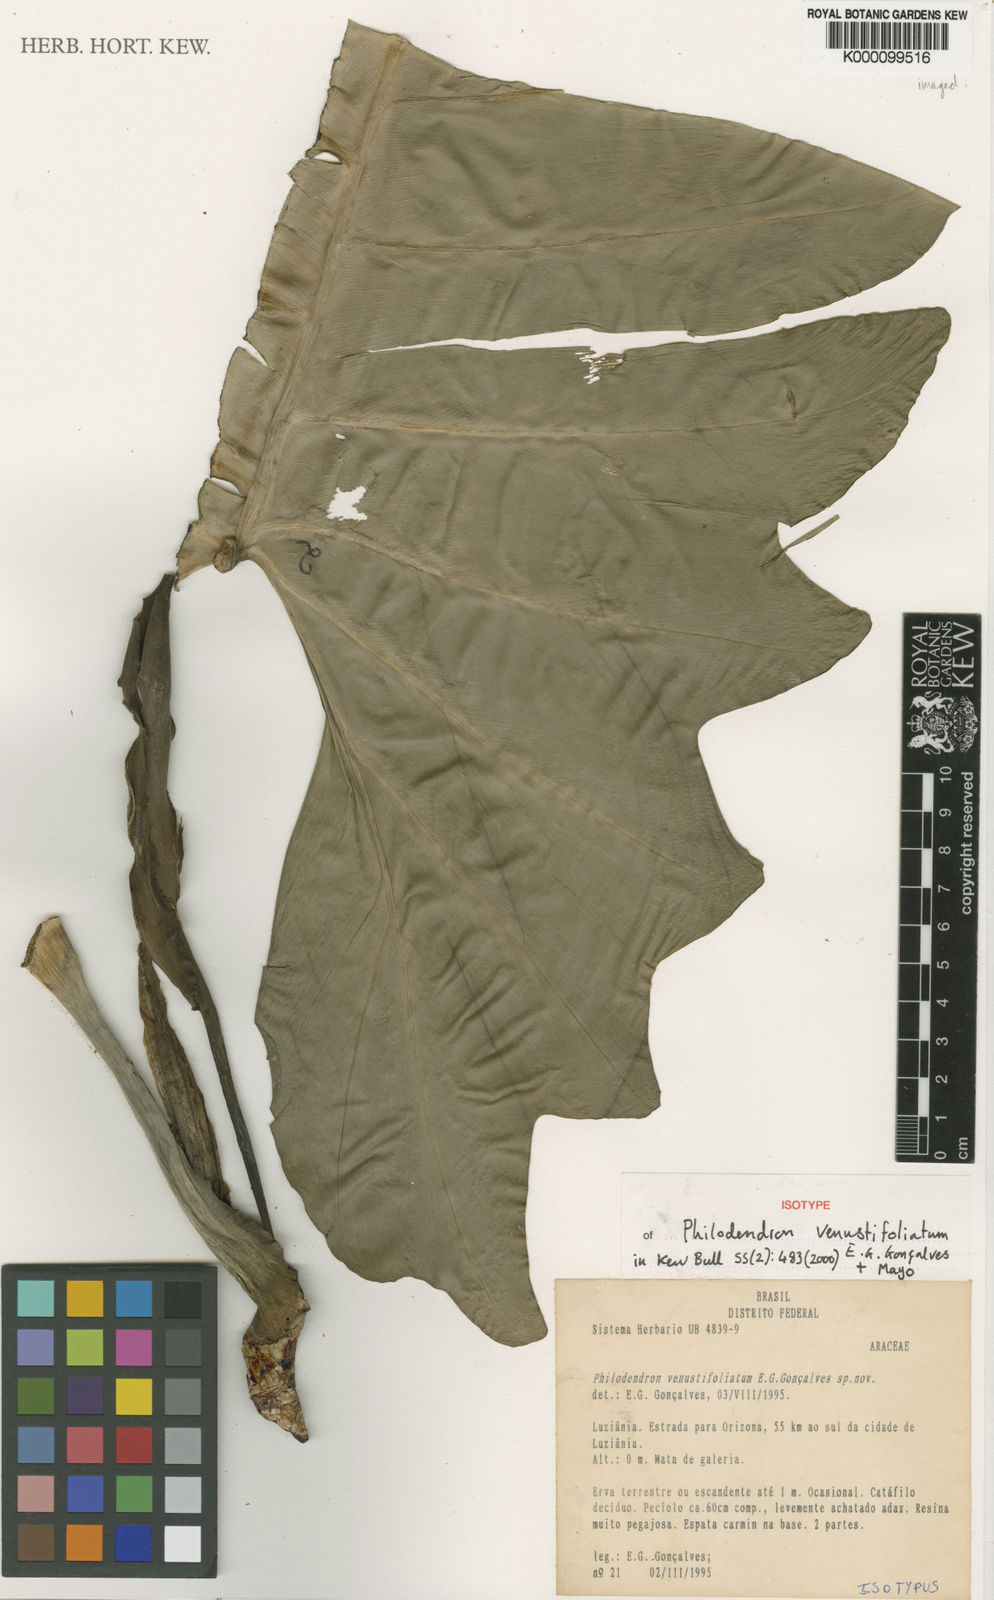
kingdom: Plantae
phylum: Tracheophyta
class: Liliopsida
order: Alismatales
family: Araceae
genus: Philodendron
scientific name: Philodendron
